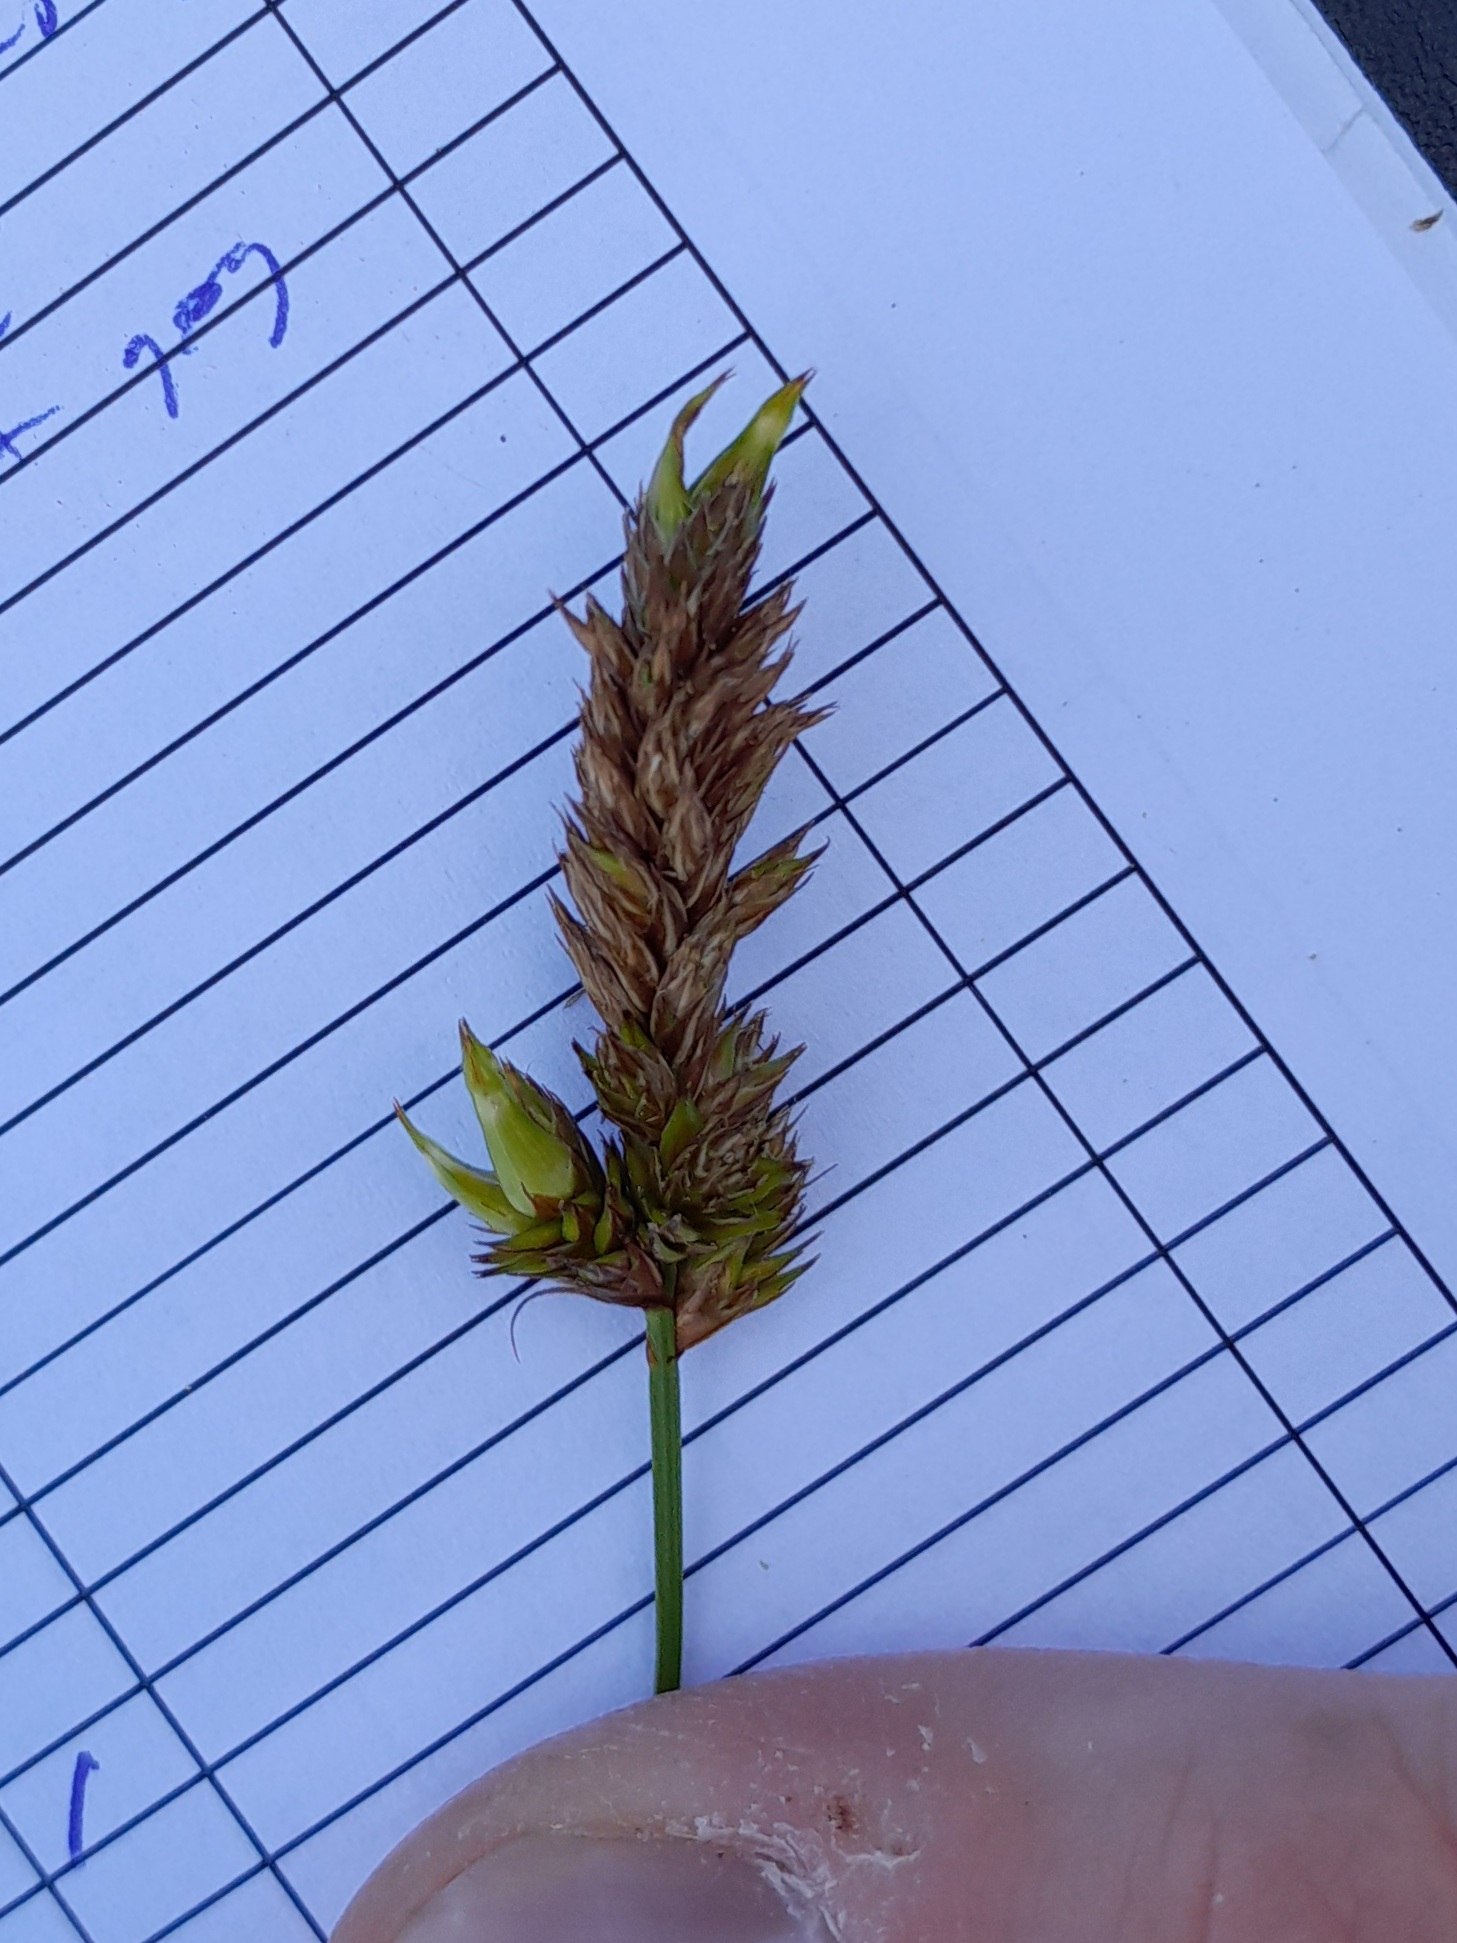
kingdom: Animalia
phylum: Arthropoda
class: Insecta
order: Diptera
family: Cecidomyiidae
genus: Wachtliella
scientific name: Wachtliella caricis
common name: Frugthylstergalmyg
